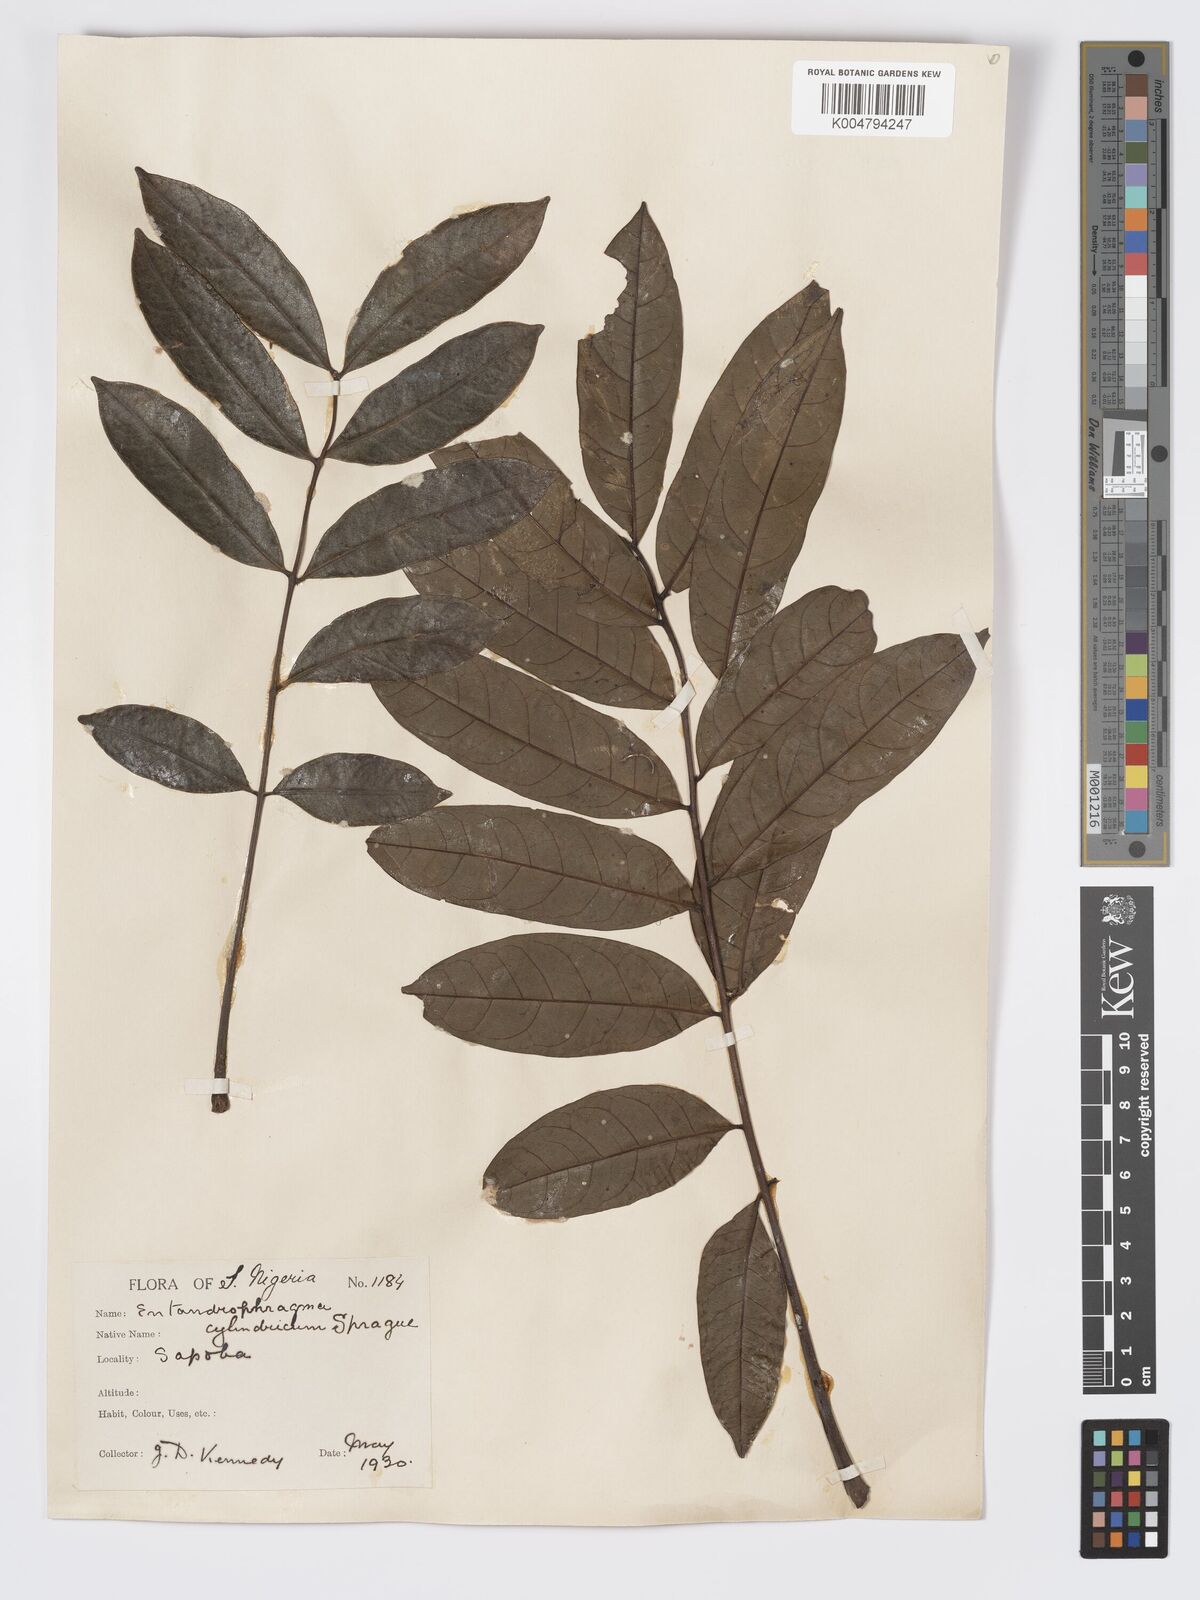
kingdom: Plantae
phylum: Tracheophyta
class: Magnoliopsida
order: Sapindales
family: Meliaceae
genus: Entandrophragma
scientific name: Entandrophragma cylindricum
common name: Sapele
